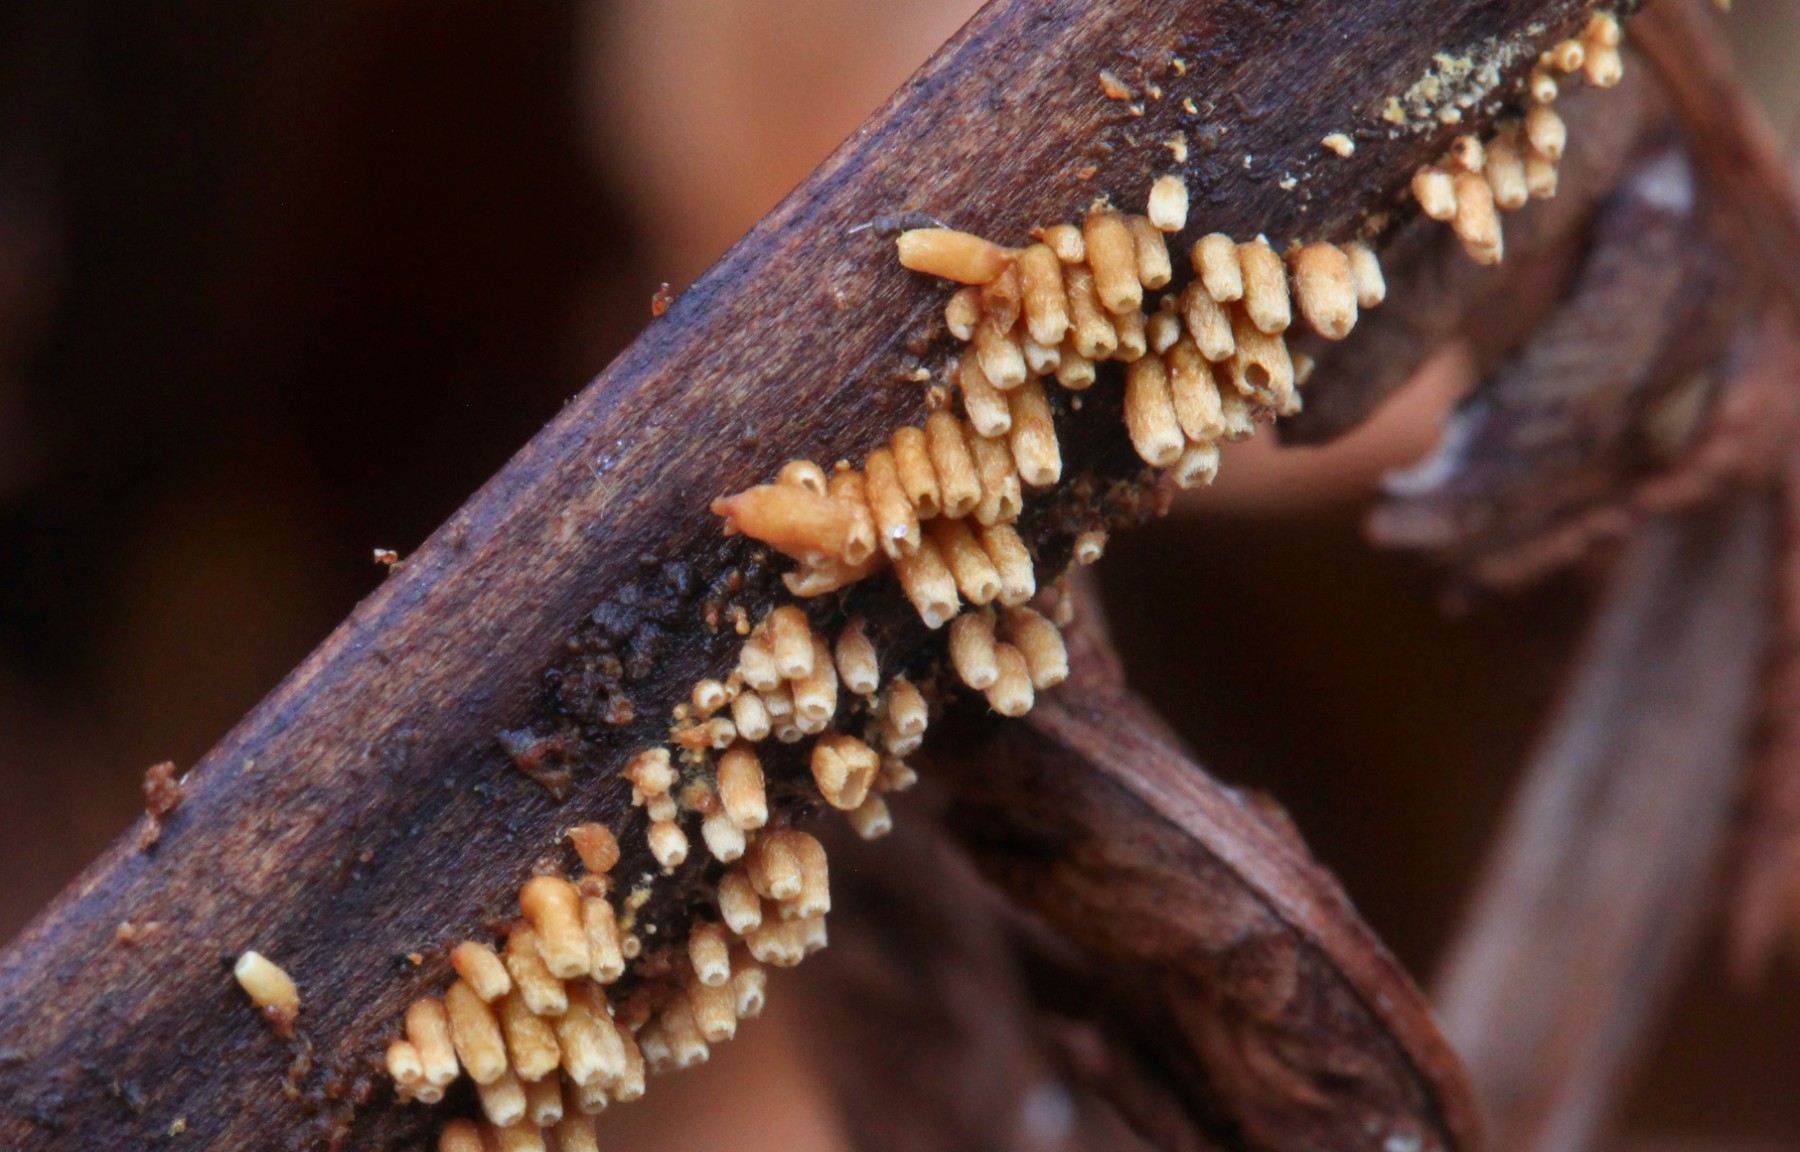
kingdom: Fungi
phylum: Basidiomycota
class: Agaricomycetes
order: Agaricales
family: Niaceae
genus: Woldmaria
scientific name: Woldmaria filicina
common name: bregnerør
